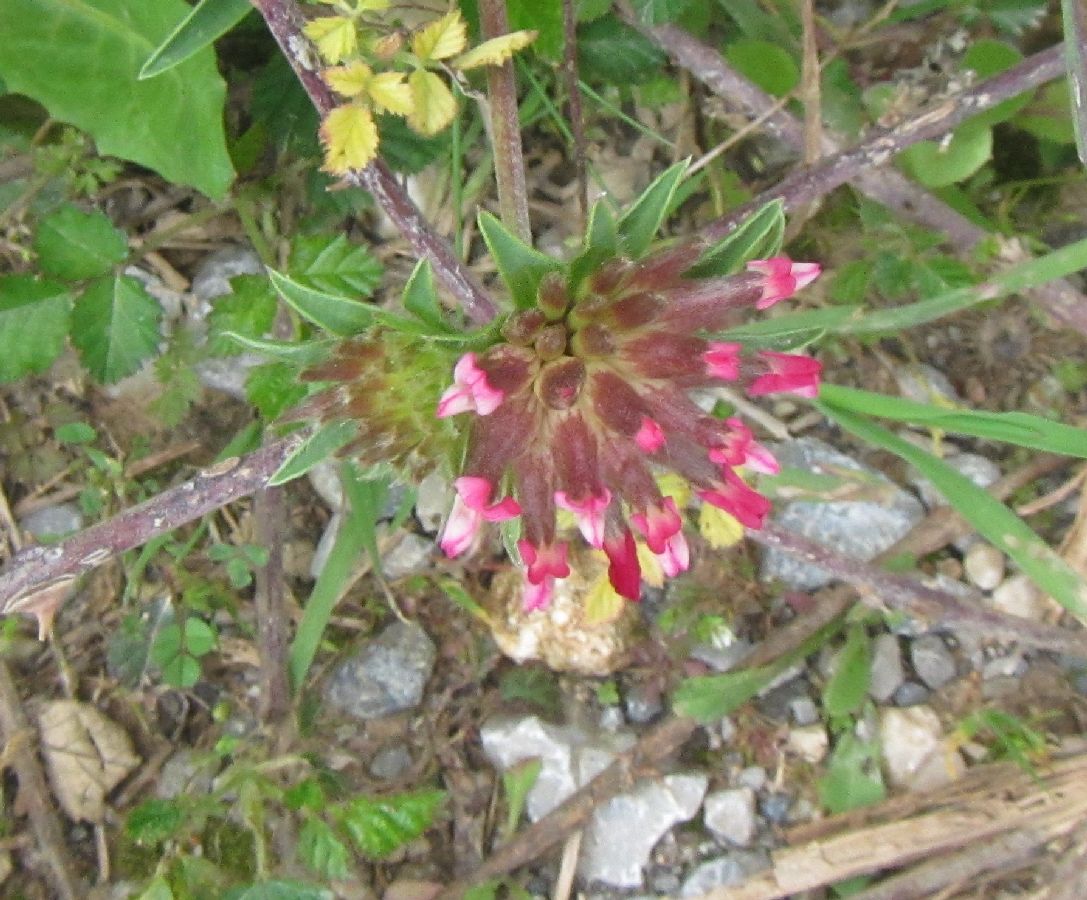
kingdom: Plantae
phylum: Tracheophyta
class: Magnoliopsida
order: Fabales
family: Fabaceae
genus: Anthyllis
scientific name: Anthyllis vulneraria
